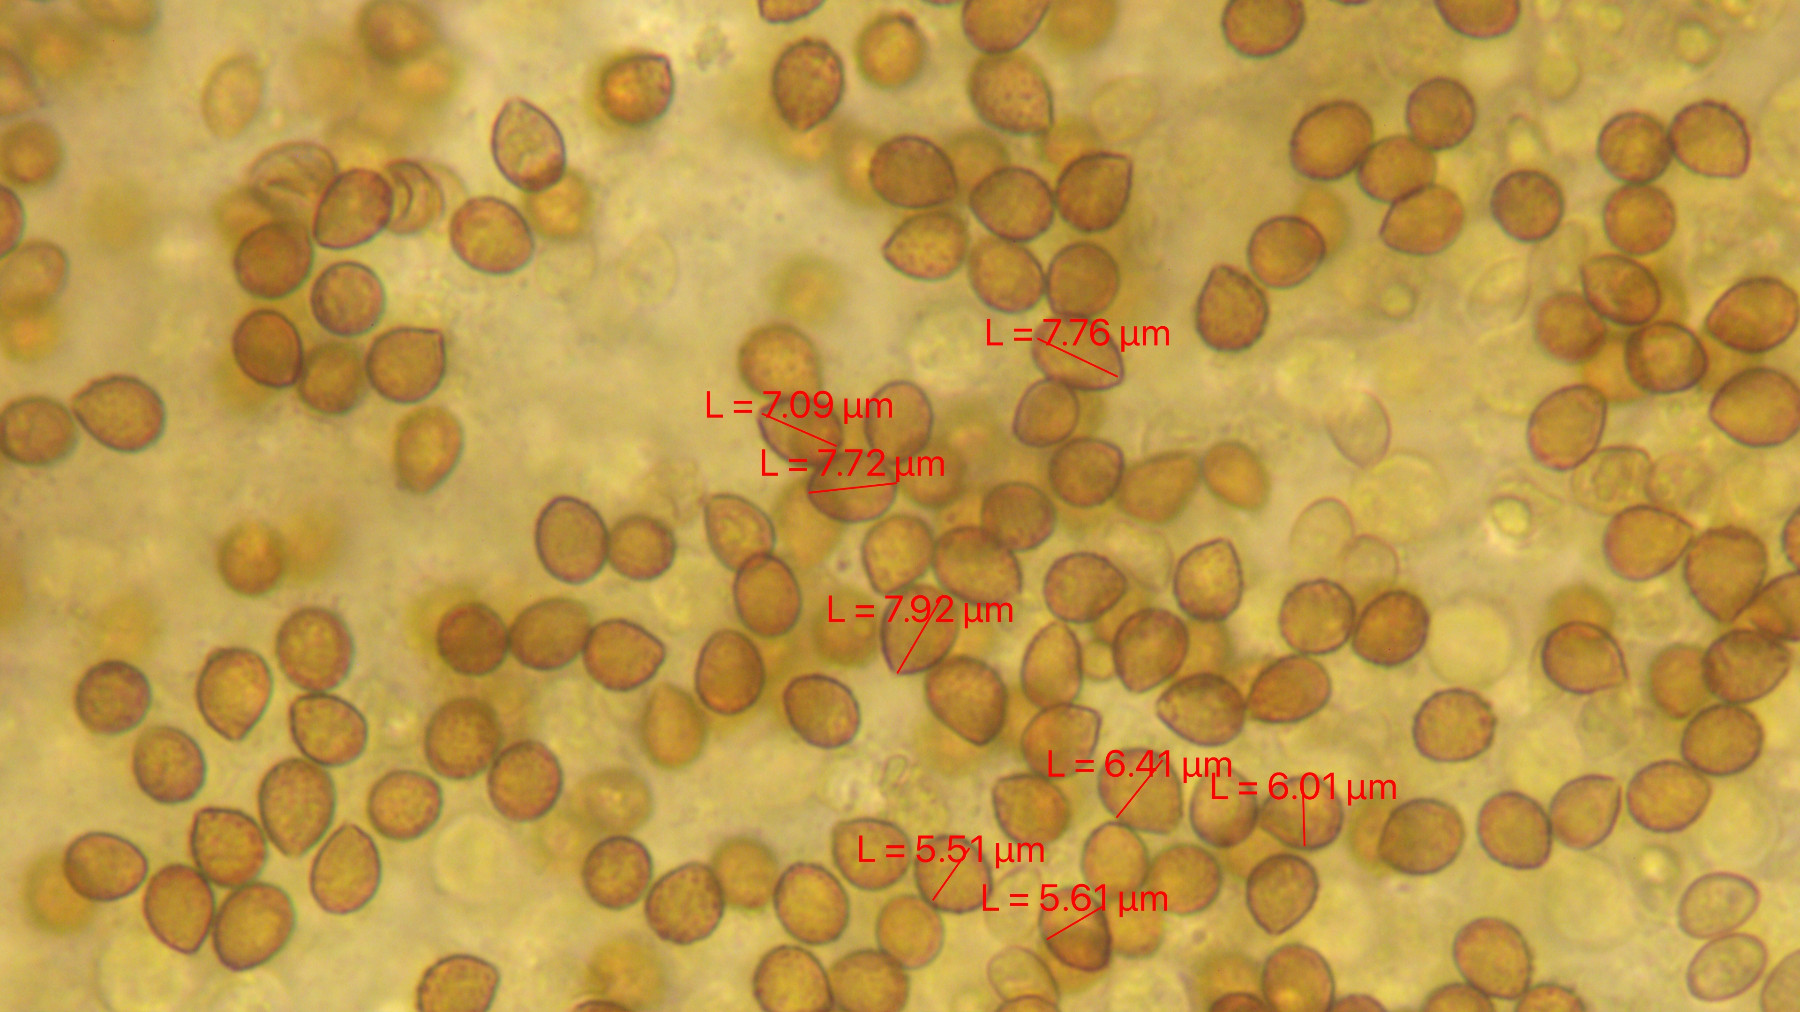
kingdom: Fungi
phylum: Basidiomycota
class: Agaricomycetes
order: Agaricales
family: Cortinariaceae
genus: Cortinarius
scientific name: Cortinarius
